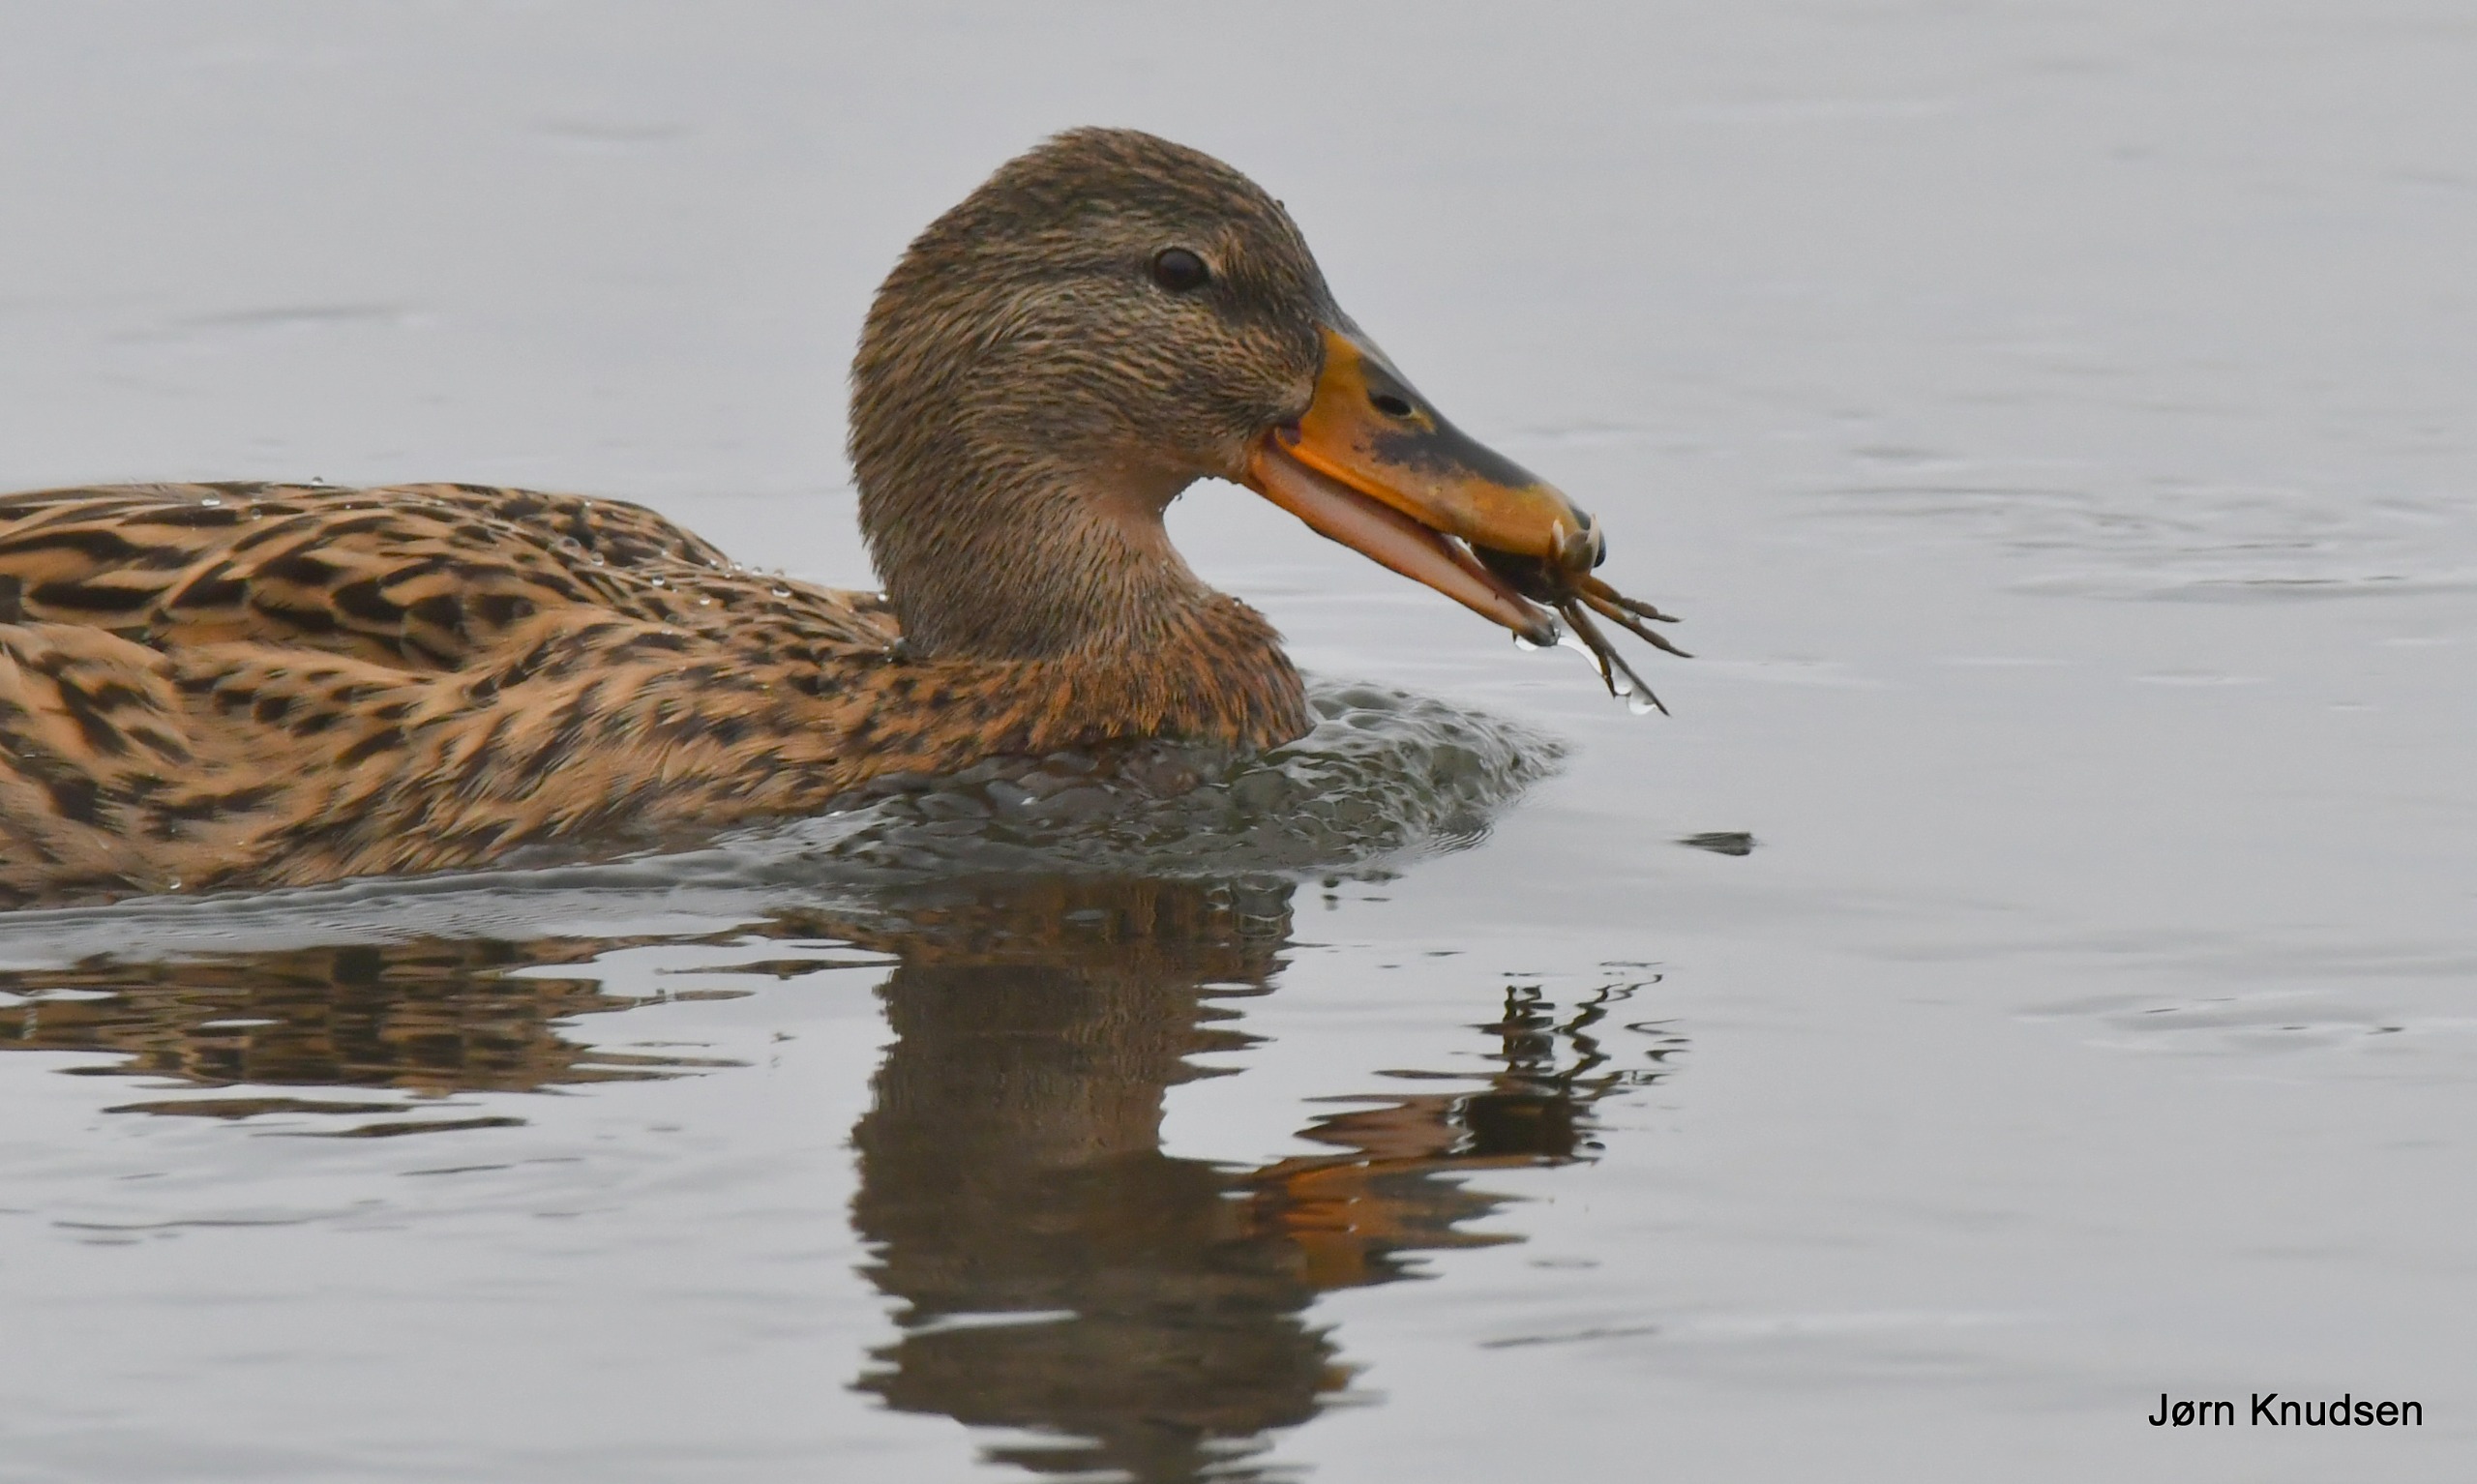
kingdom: Animalia
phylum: Chordata
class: Aves
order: Anseriformes
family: Anatidae
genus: Anas
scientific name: Anas platyrhynchos
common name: Gråand
